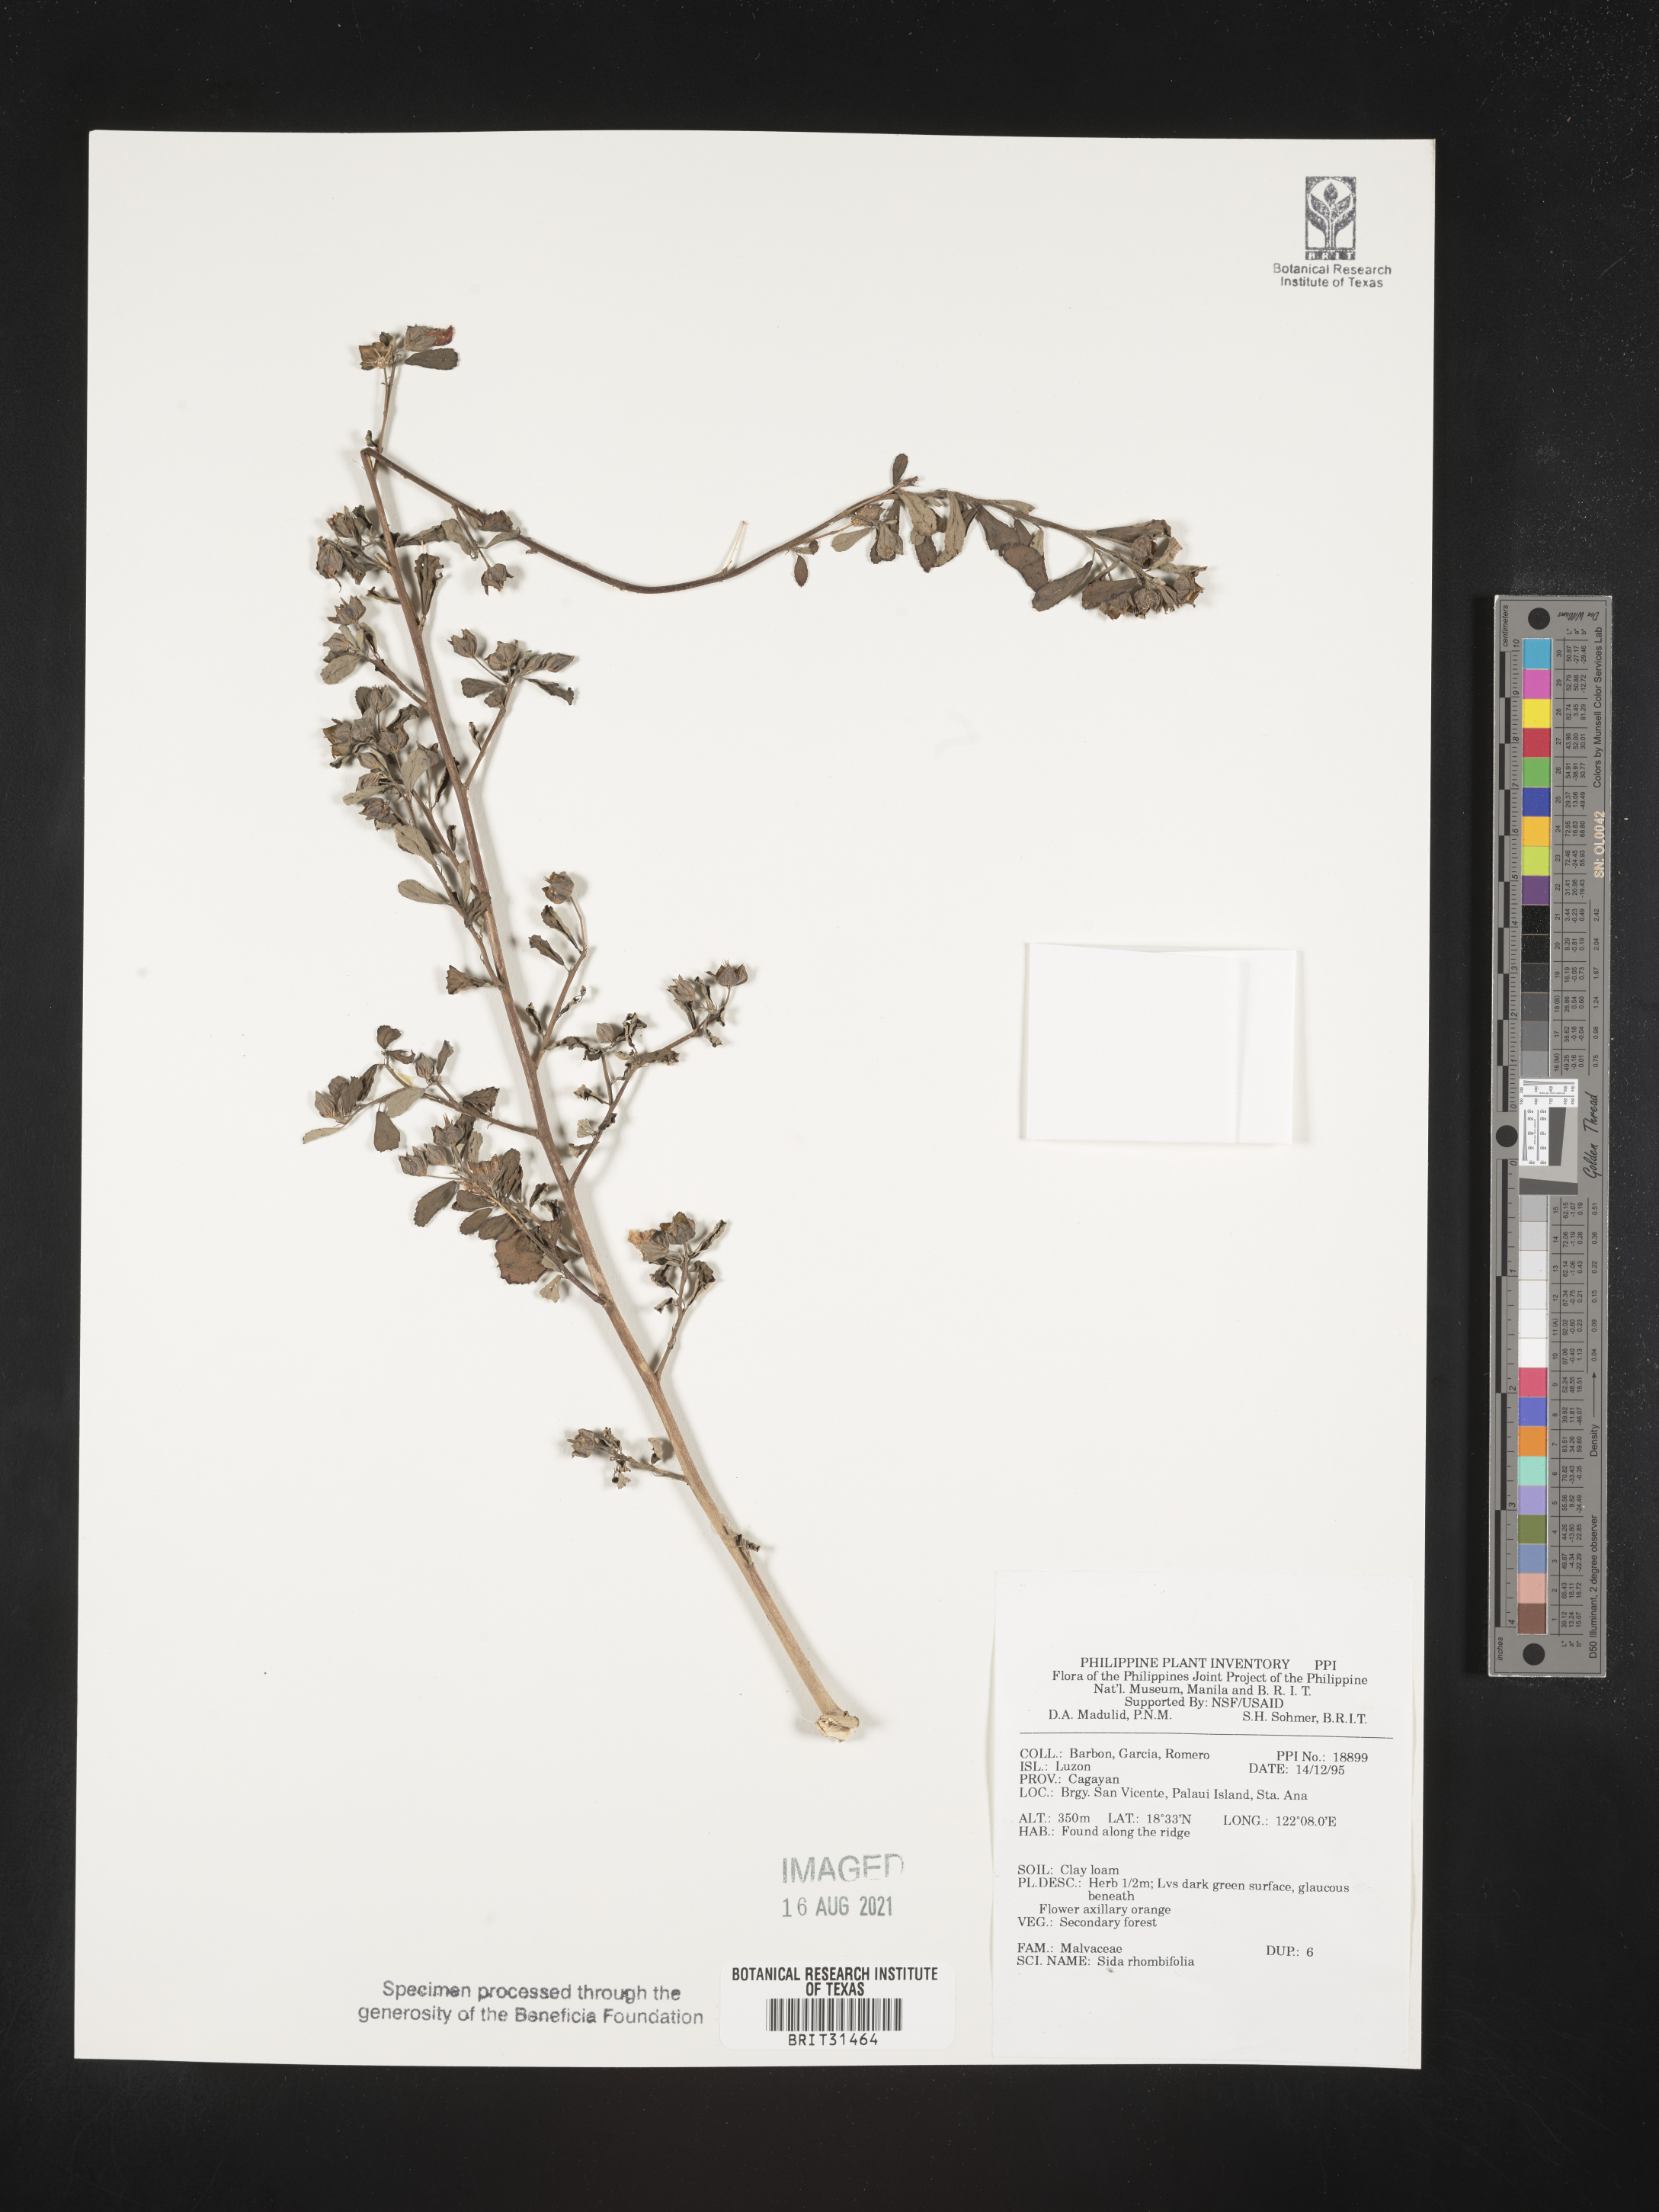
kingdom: Plantae
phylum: Tracheophyta
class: Magnoliopsida
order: Malvales
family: Malvaceae
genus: Sida
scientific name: Sida rhombifolia
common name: Queensland-hemp
